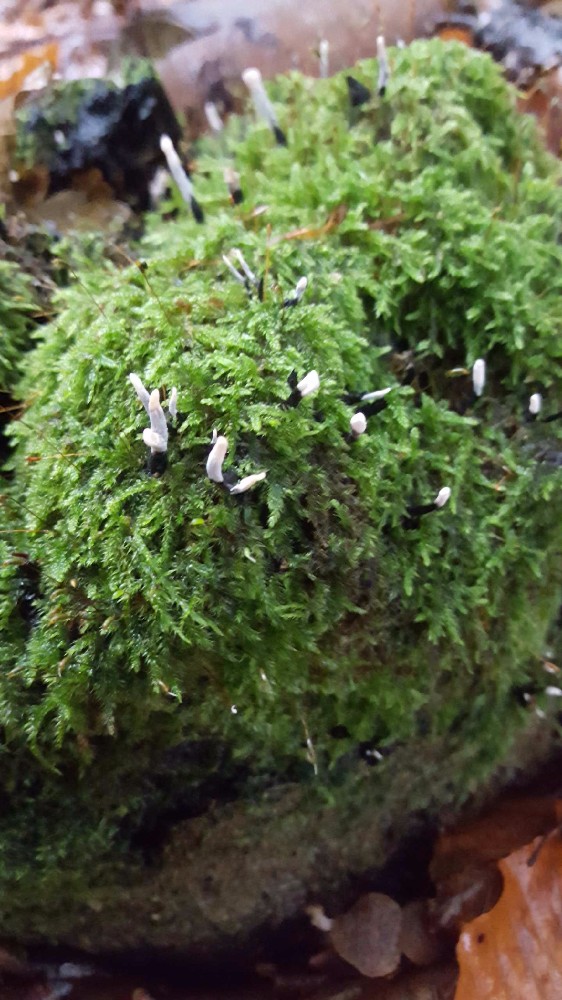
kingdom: Fungi
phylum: Ascomycota
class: Sordariomycetes
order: Xylariales
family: Xylariaceae
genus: Xylaria
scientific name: Xylaria hypoxylon
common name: grenet stødsvamp
